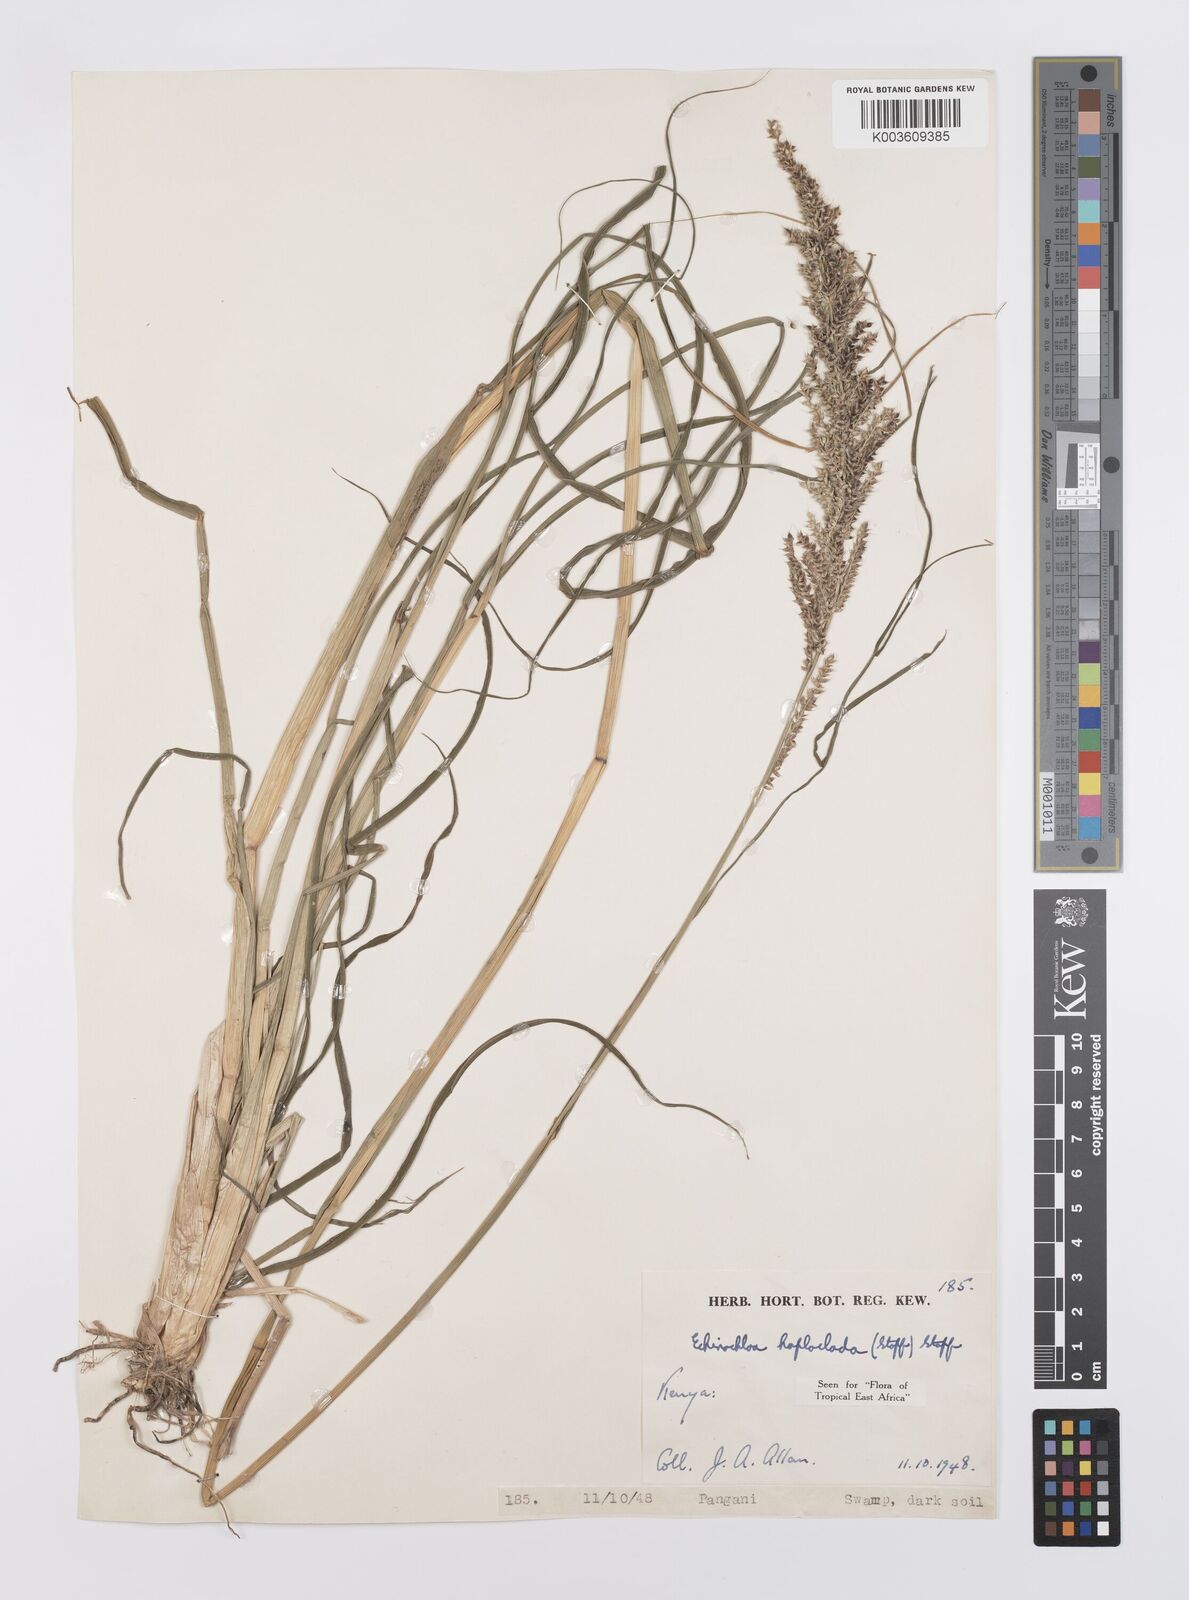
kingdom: Plantae
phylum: Tracheophyta
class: Liliopsida
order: Poales
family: Poaceae
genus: Echinochloa
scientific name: Echinochloa haploclada
